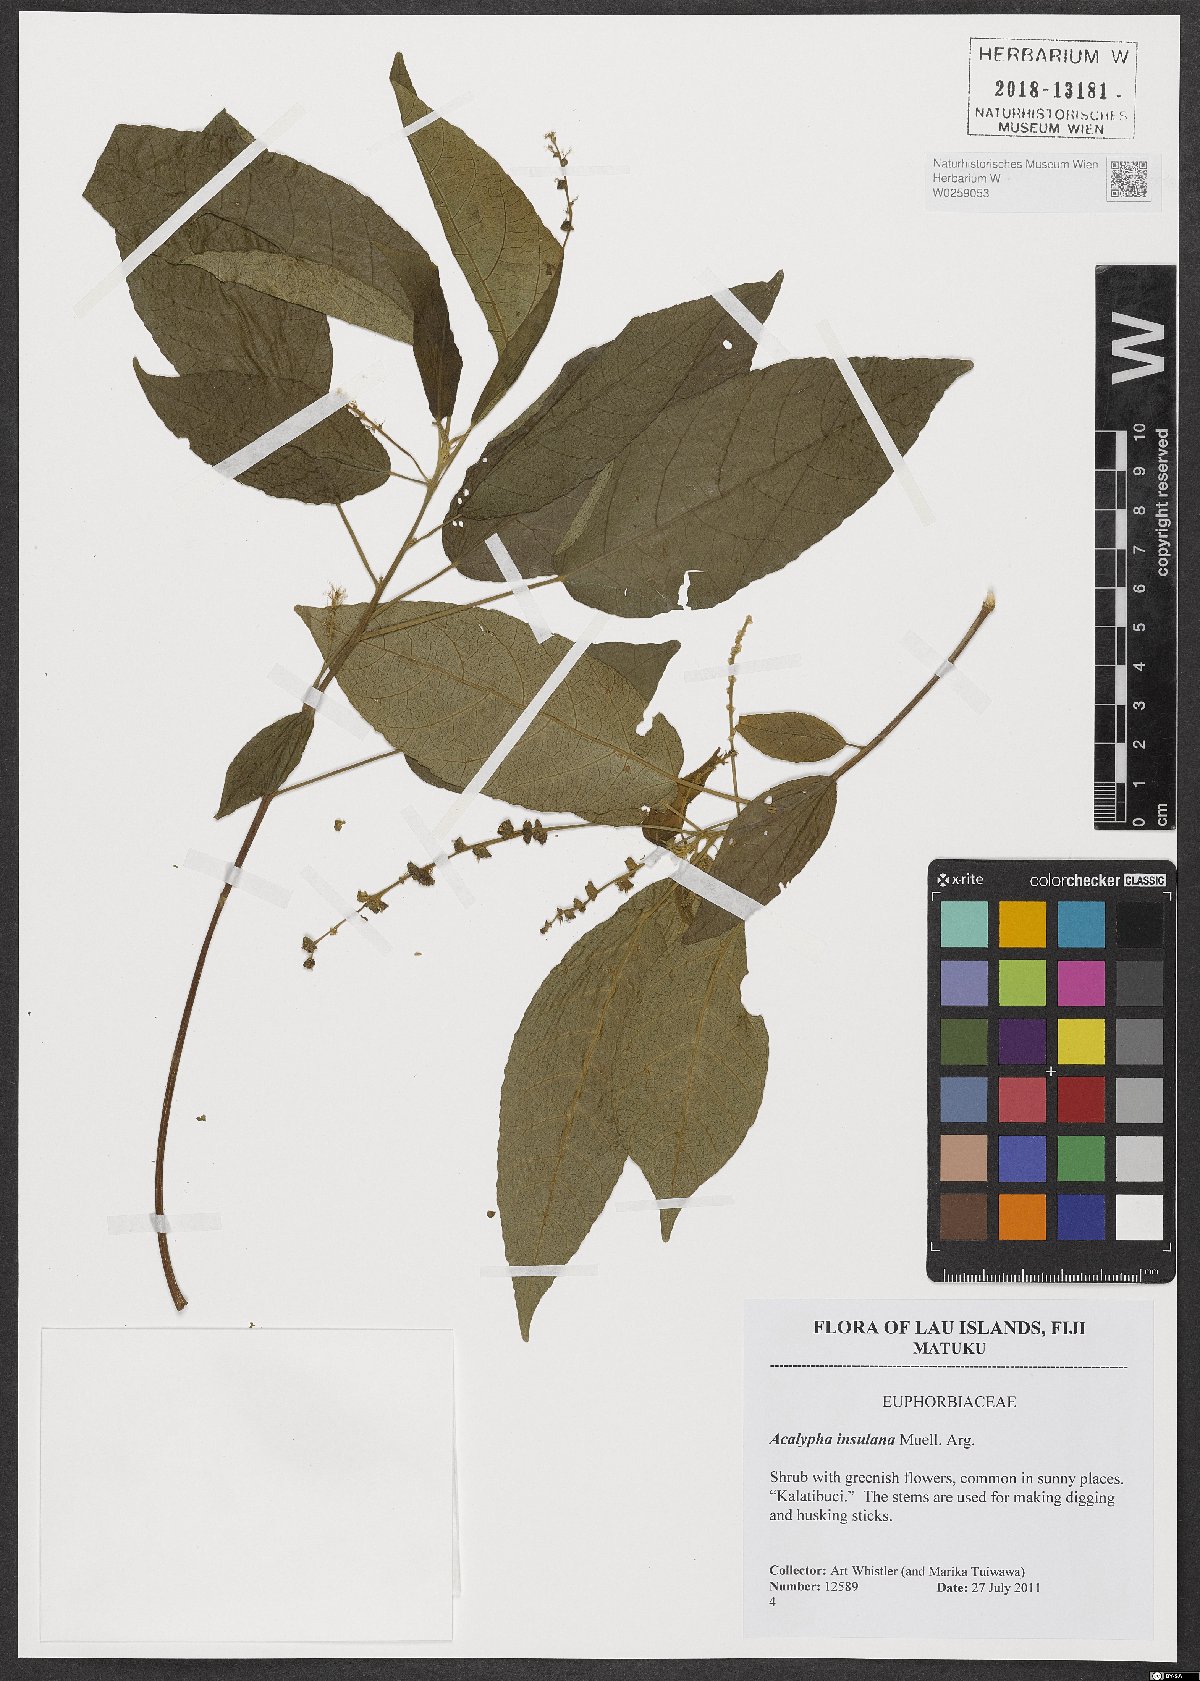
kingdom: Plantae
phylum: Tracheophyta
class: Magnoliopsida
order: Malpighiales
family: Euphorbiaceae
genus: Acalypha
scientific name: Acalypha insulana
